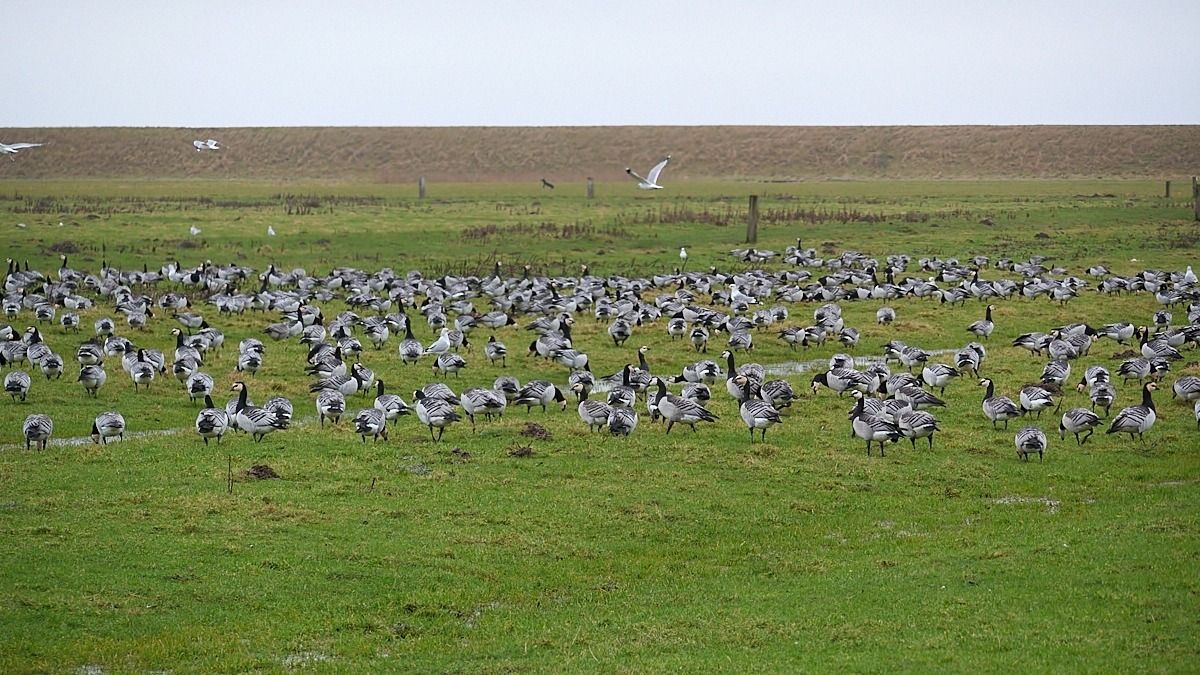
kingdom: Animalia
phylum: Chordata
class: Aves
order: Anseriformes
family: Anatidae
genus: Branta
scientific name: Branta leucopsis
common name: Bramgås
